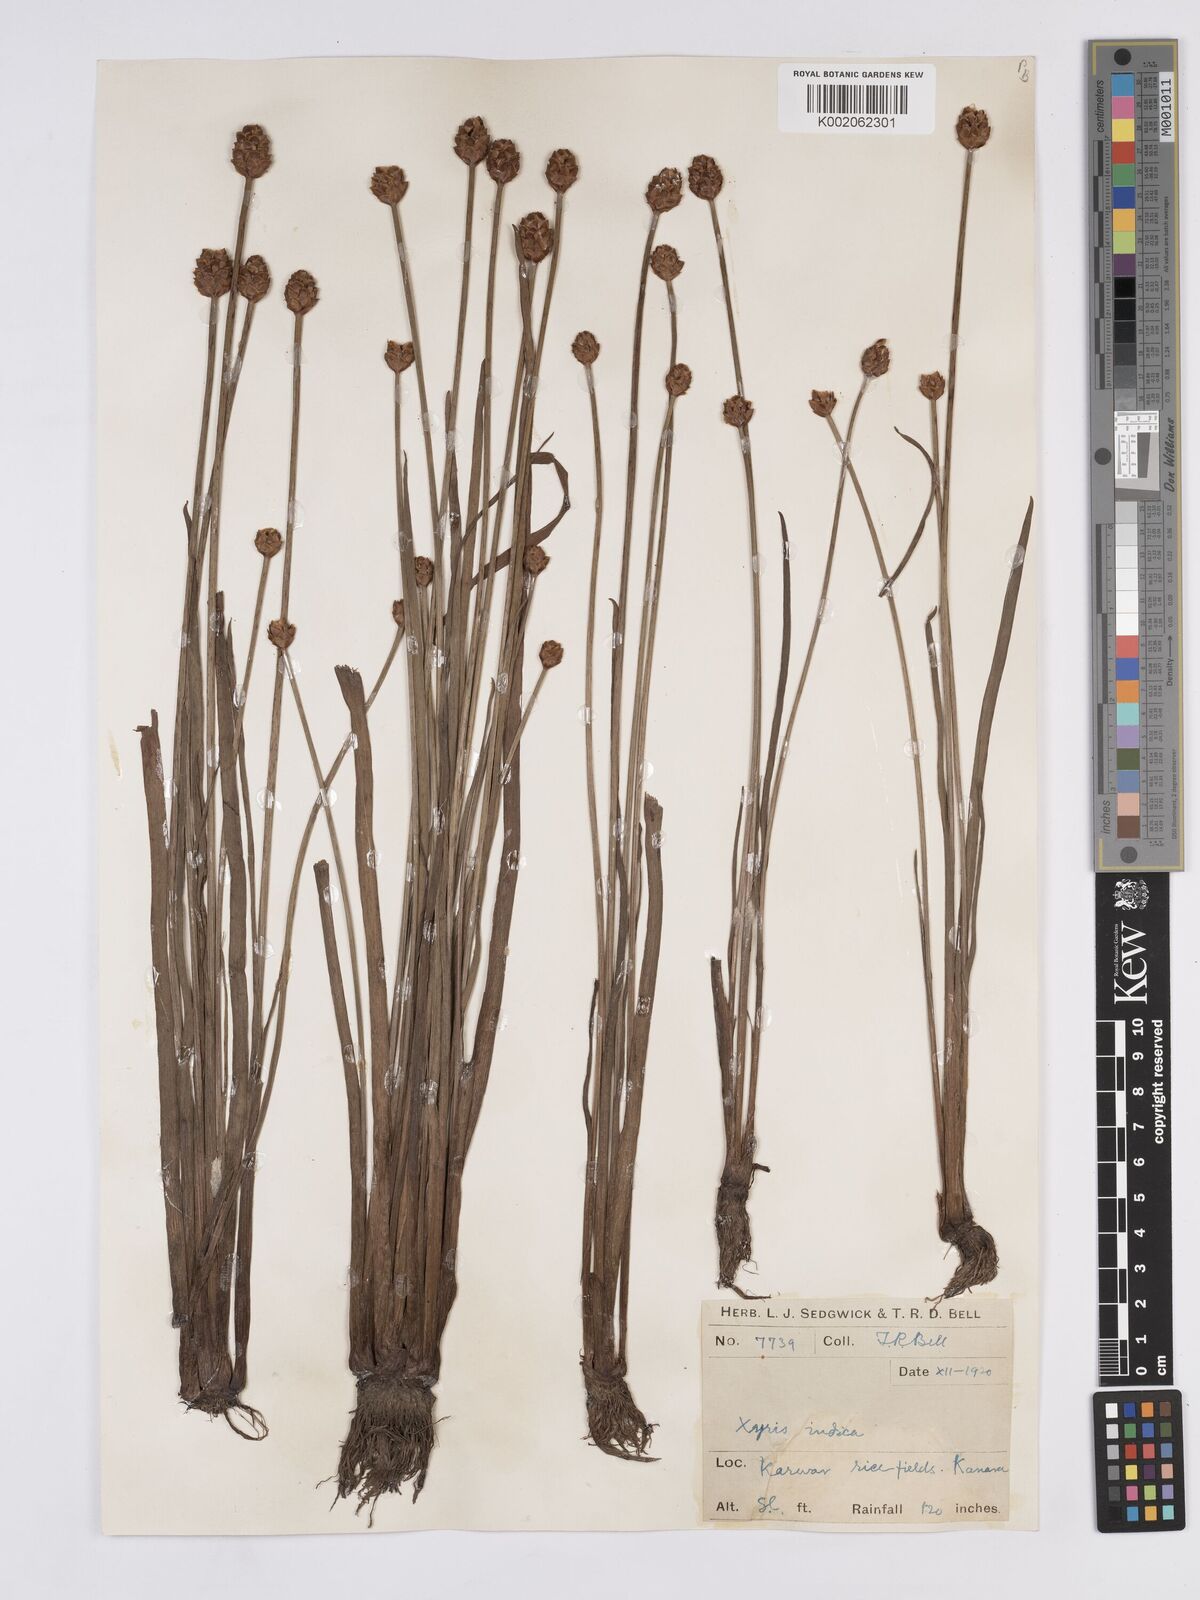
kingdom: Plantae
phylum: Tracheophyta
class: Liliopsida
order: Poales
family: Xyridaceae
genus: Xyris
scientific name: Xyris indica
